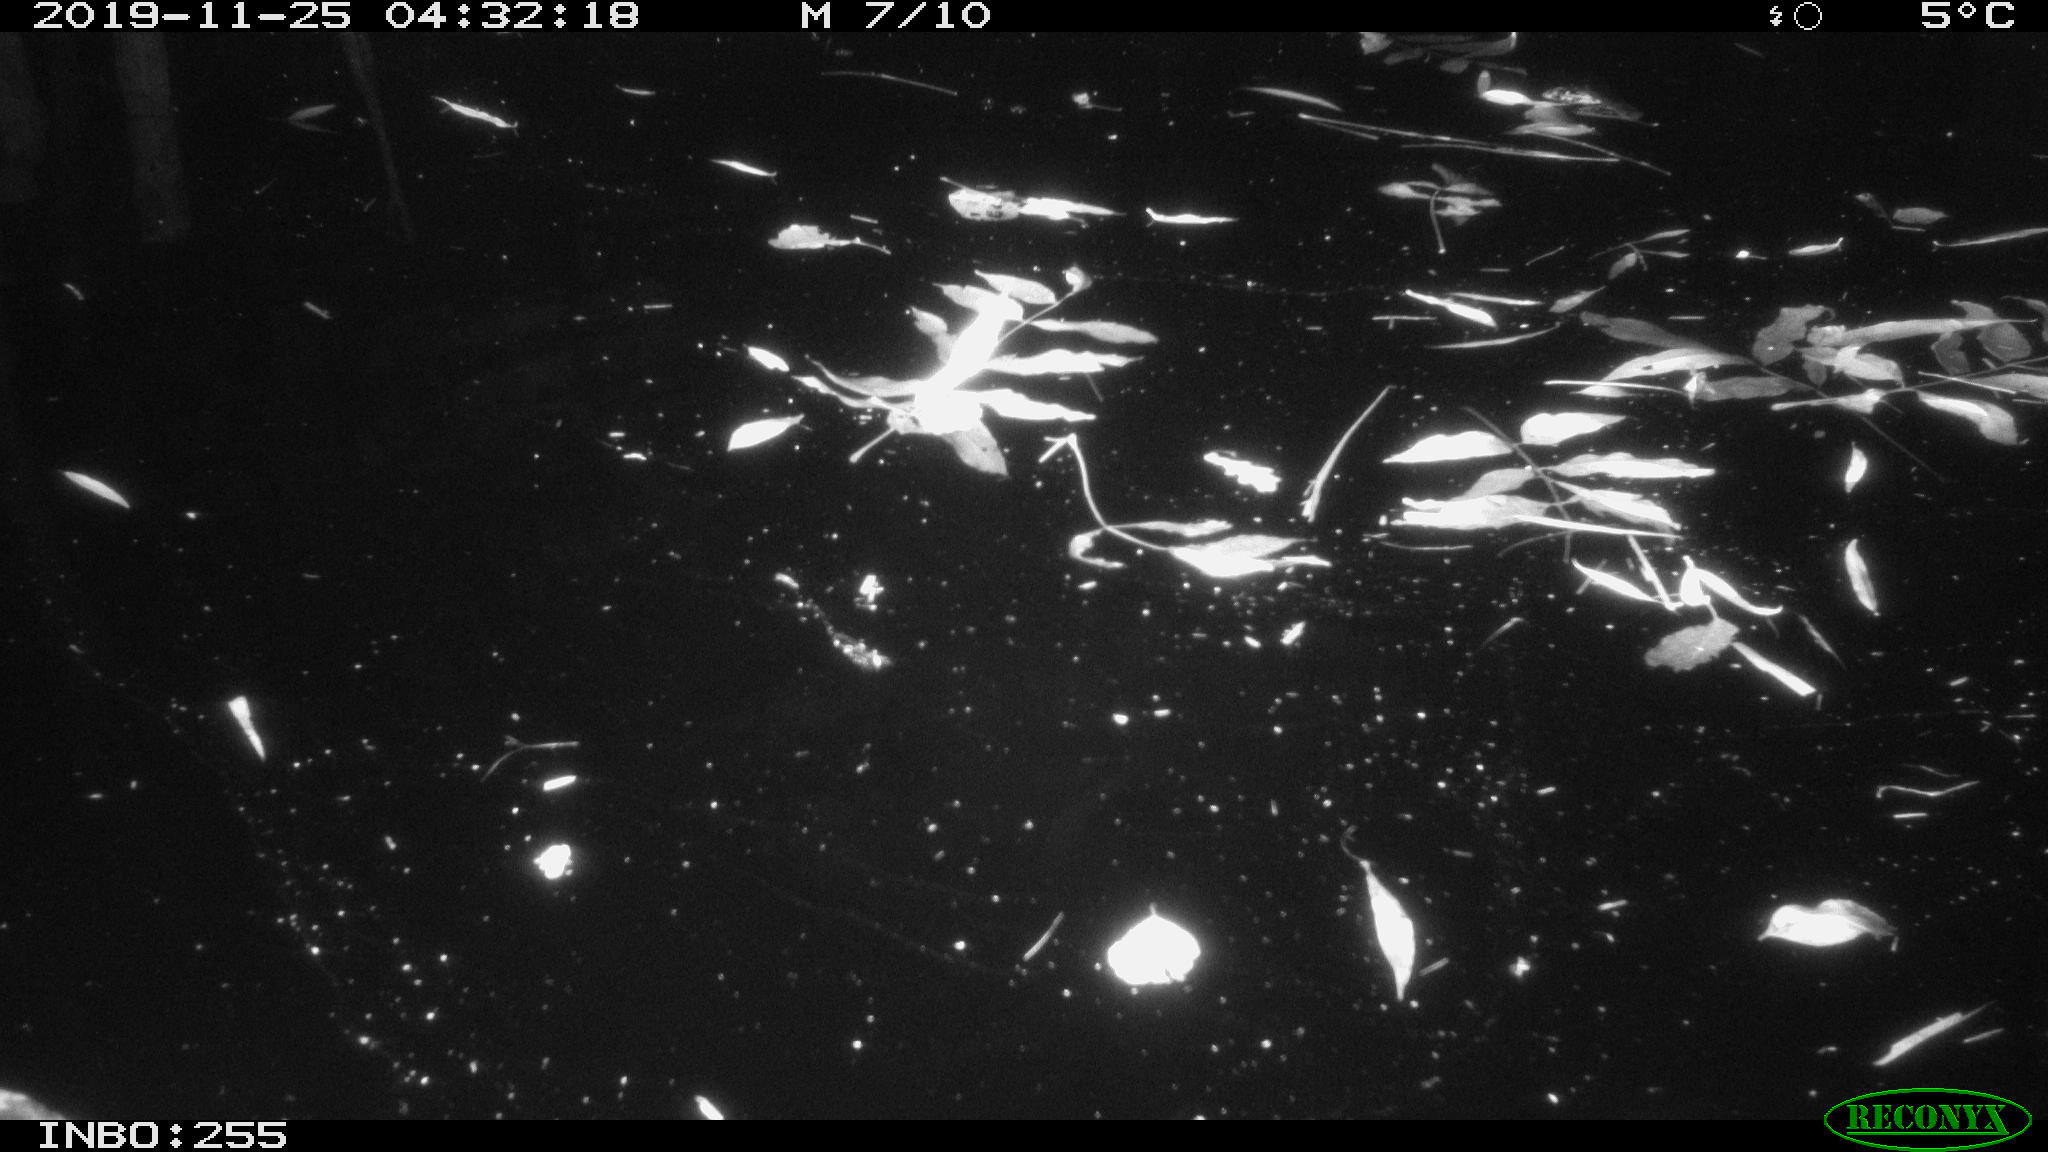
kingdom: Animalia
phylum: Chordata
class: Aves
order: Anseriformes
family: Anatidae
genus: Anas
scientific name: Anas platyrhynchos
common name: Mallard
